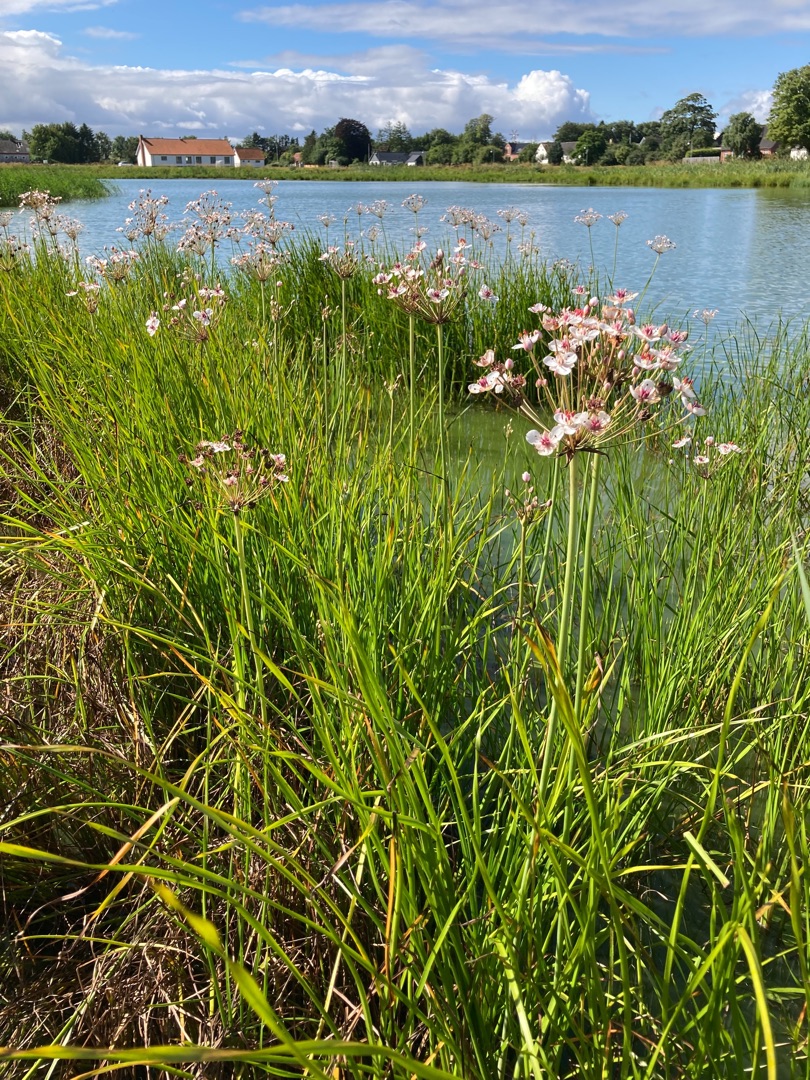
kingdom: Plantae
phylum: Tracheophyta
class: Liliopsida
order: Alismatales
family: Butomaceae
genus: Butomus
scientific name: Butomus umbellatus
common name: Brudelys
